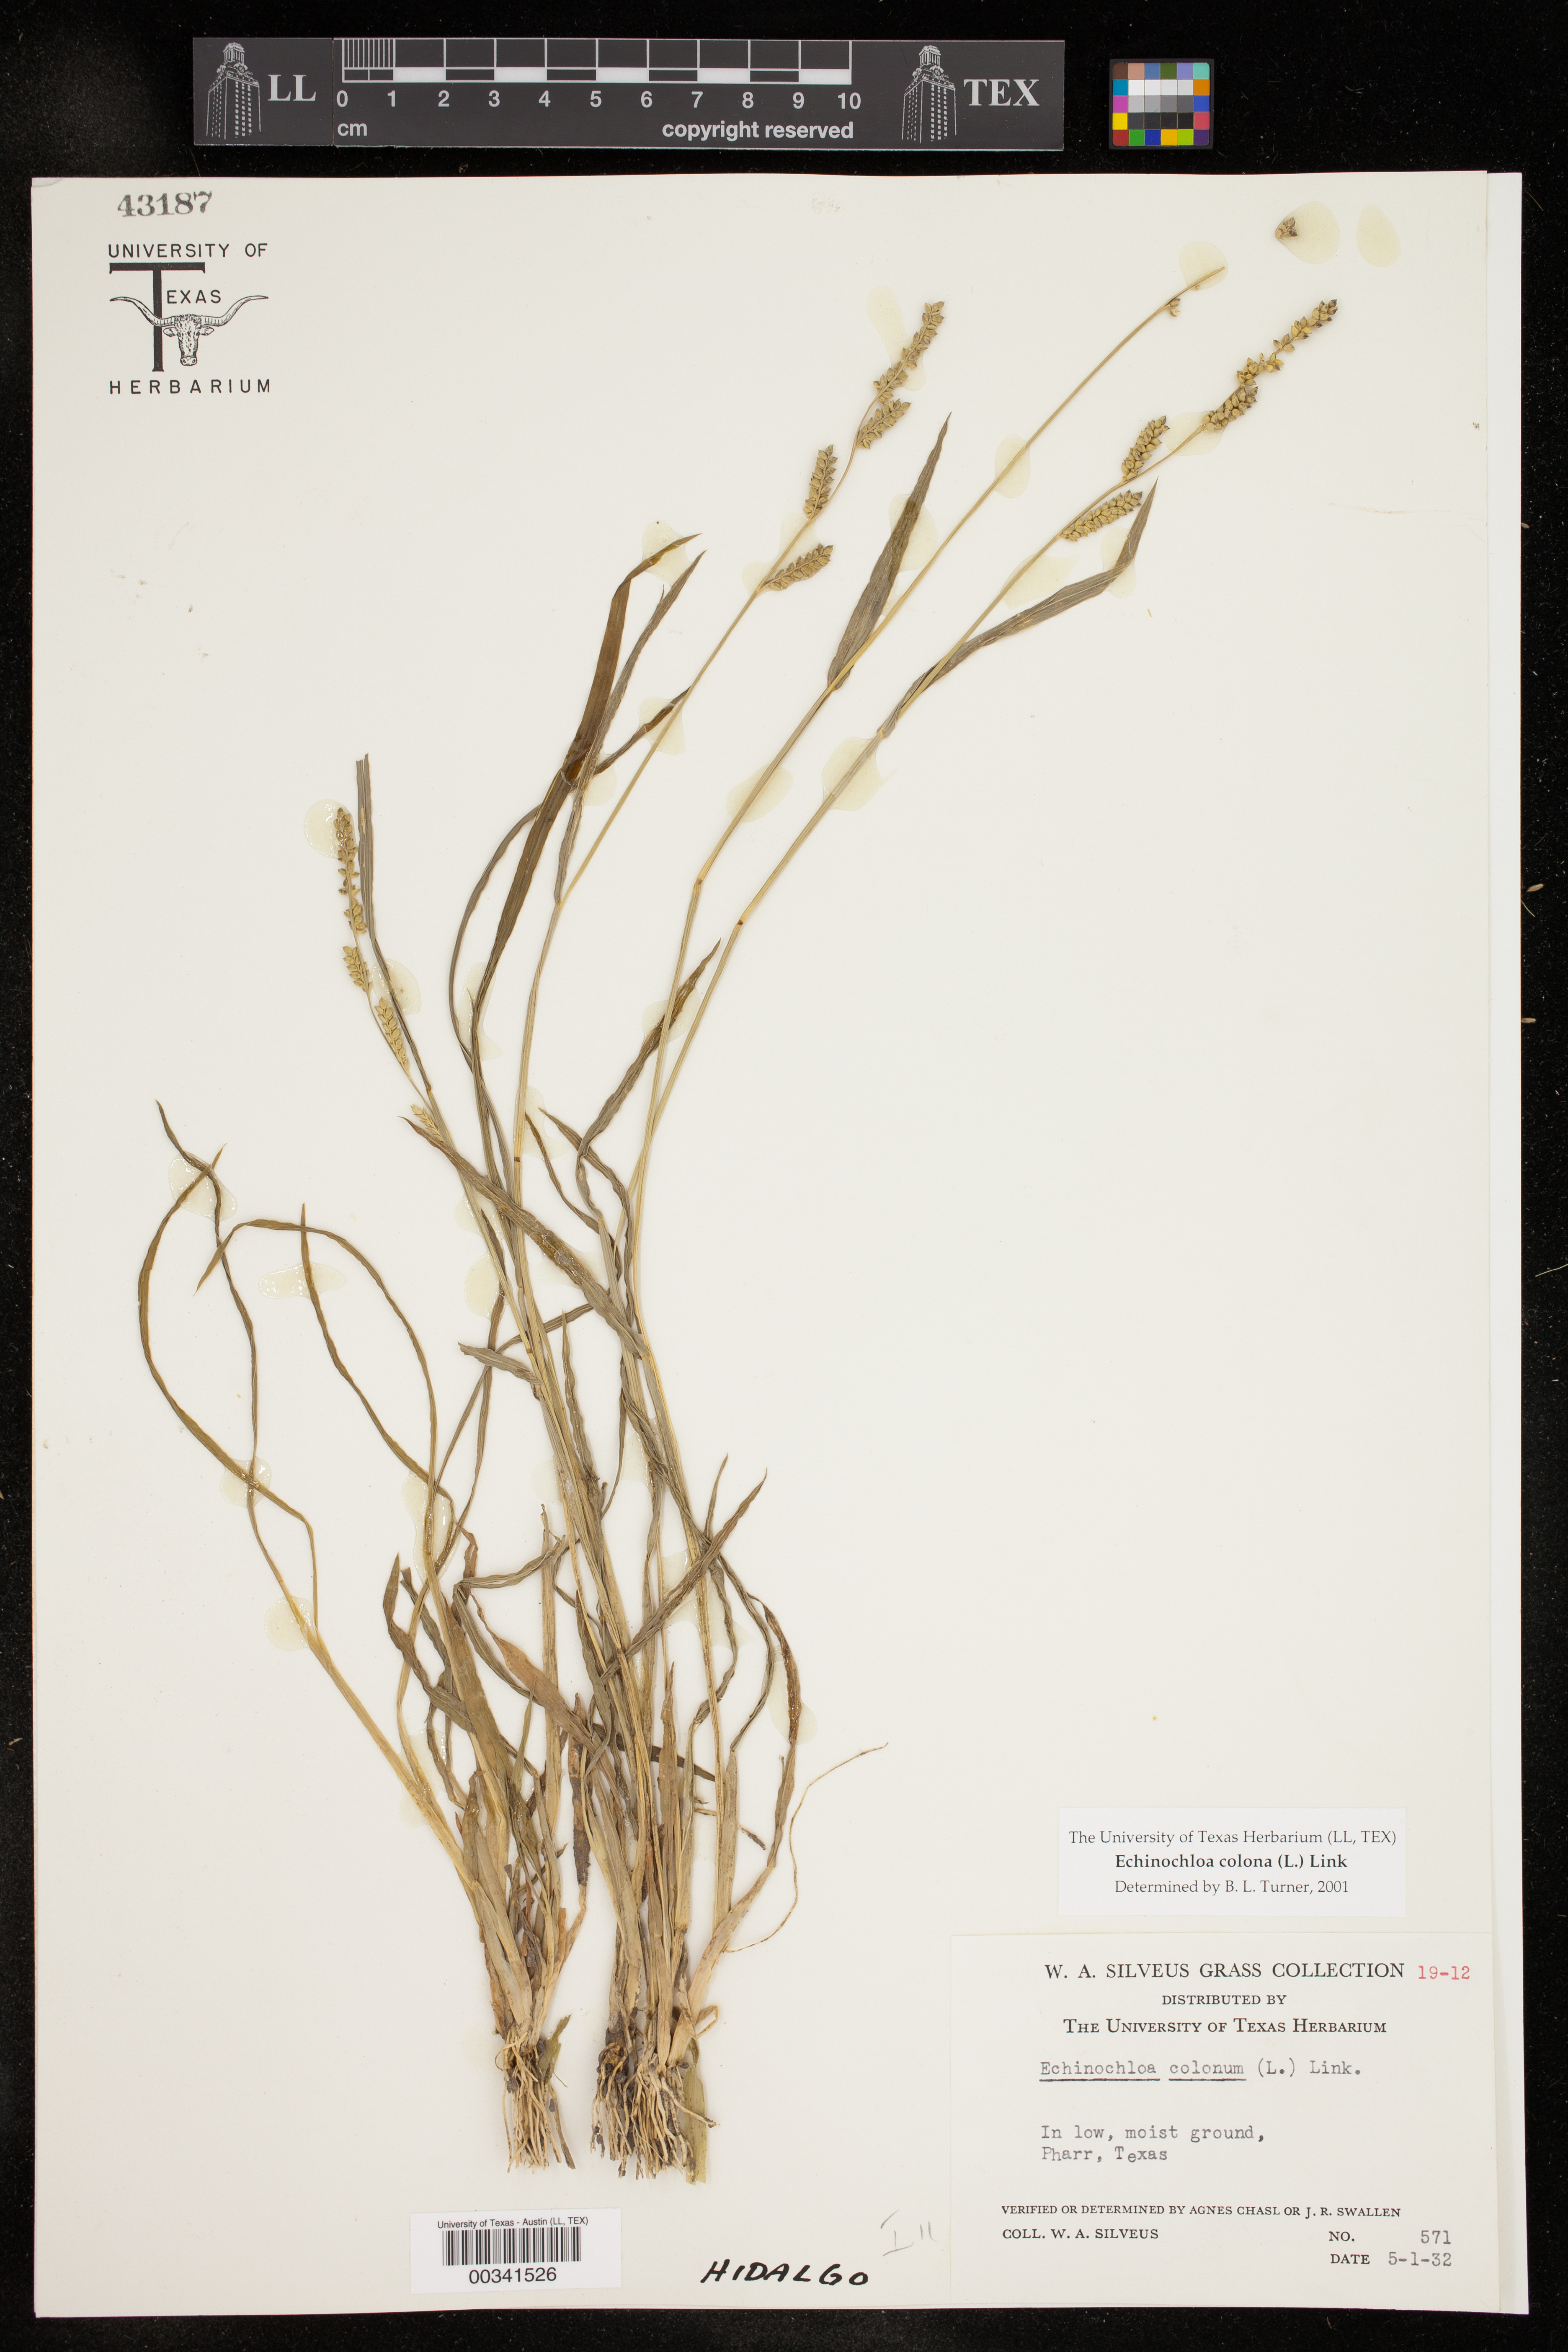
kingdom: Plantae
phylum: Tracheophyta
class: Liliopsida
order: Poales
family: Poaceae
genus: Echinochloa
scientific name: Echinochloa colonum
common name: Jungle rice
